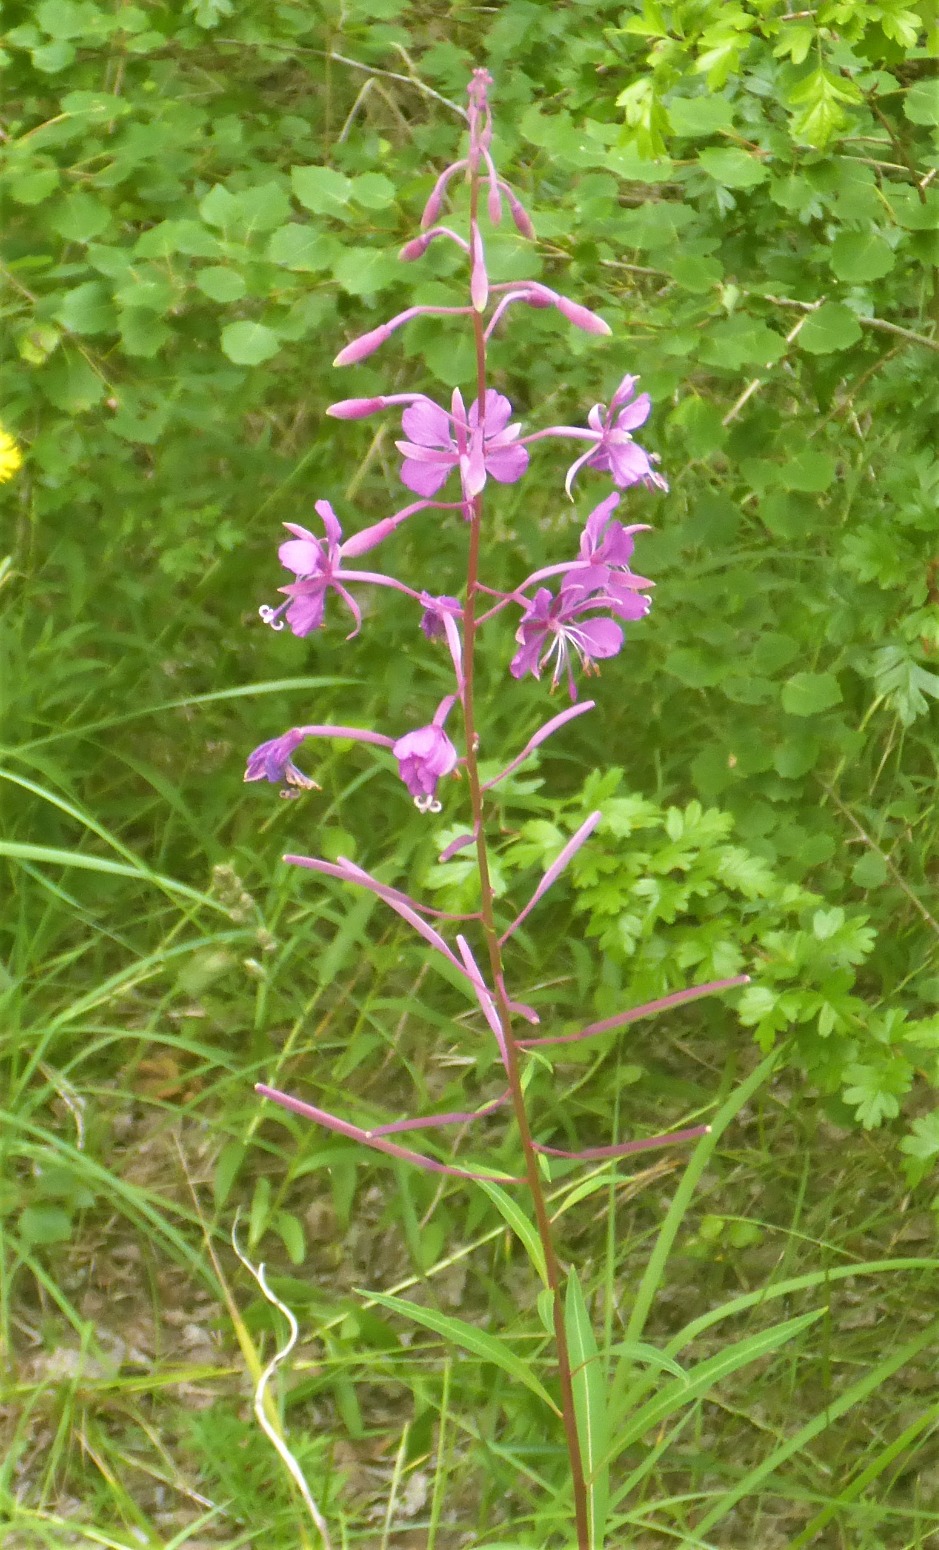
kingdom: Plantae
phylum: Tracheophyta
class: Magnoliopsida
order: Myrtales
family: Onagraceae
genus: Chamaenerion
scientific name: Chamaenerion angustifolium
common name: Gederams
